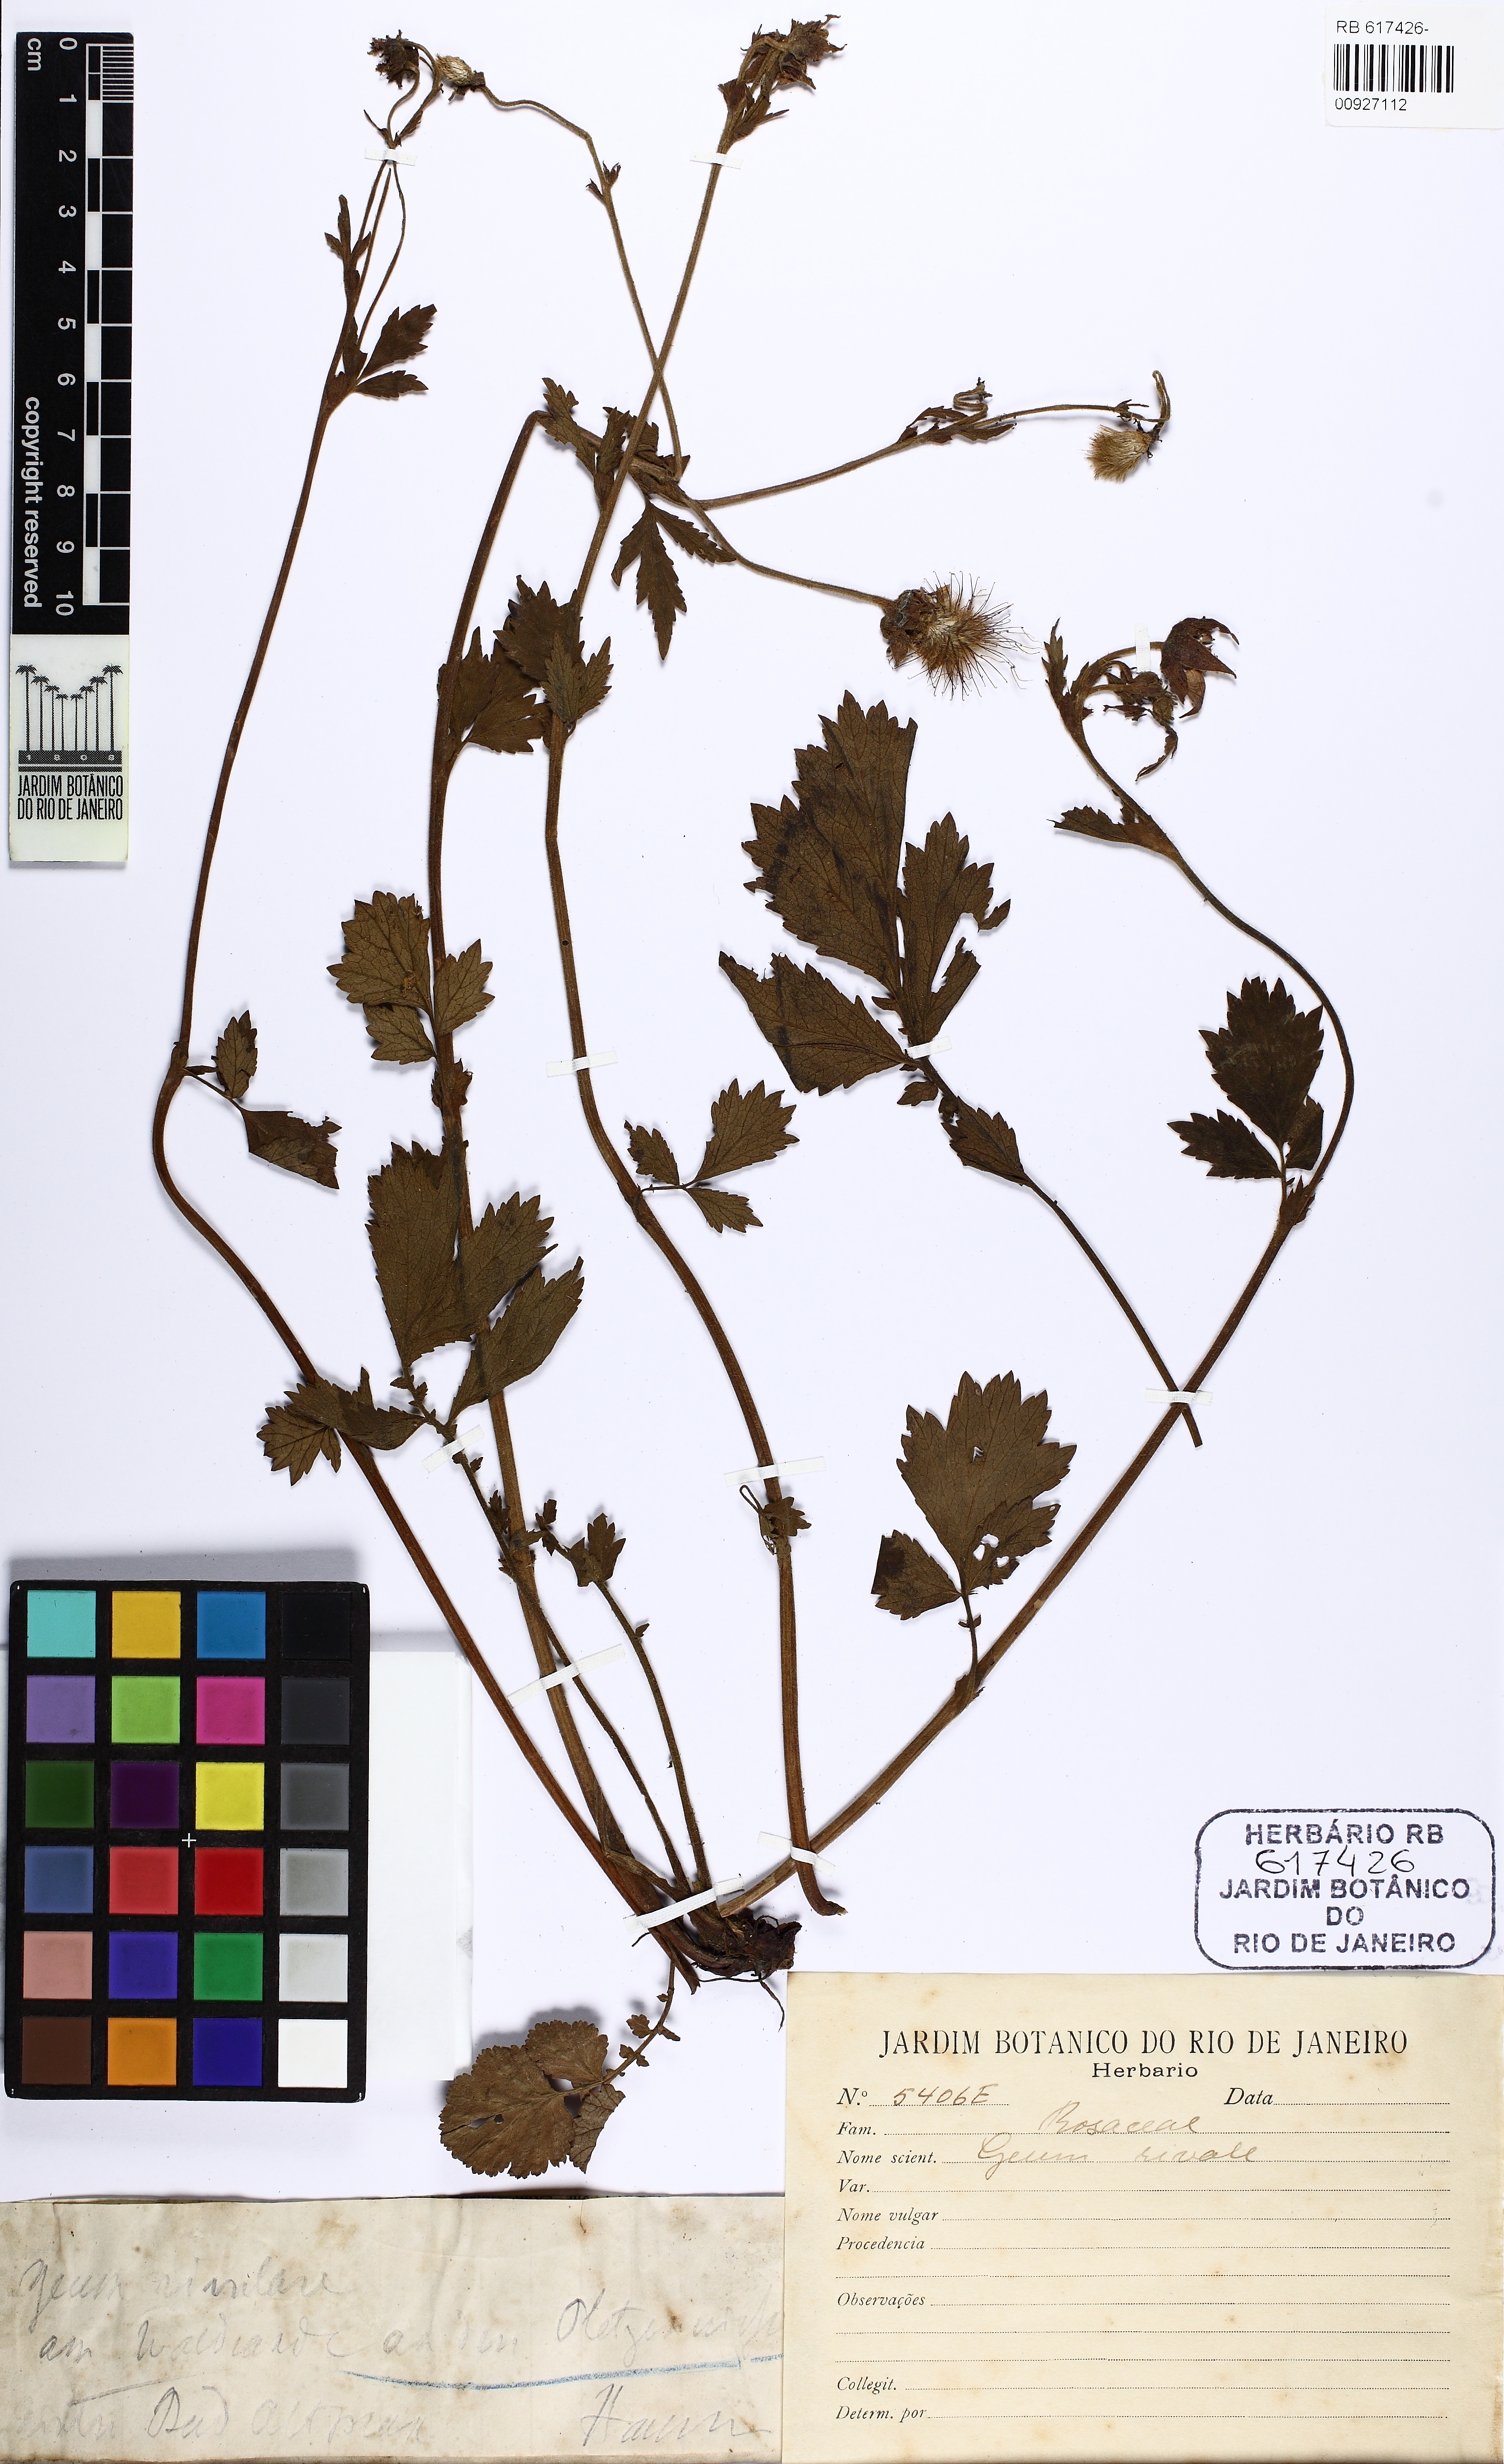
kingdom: Plantae
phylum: Tracheophyta
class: Magnoliopsida
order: Rosales
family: Rosaceae
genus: Geum
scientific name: Geum rivale
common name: Water avens
